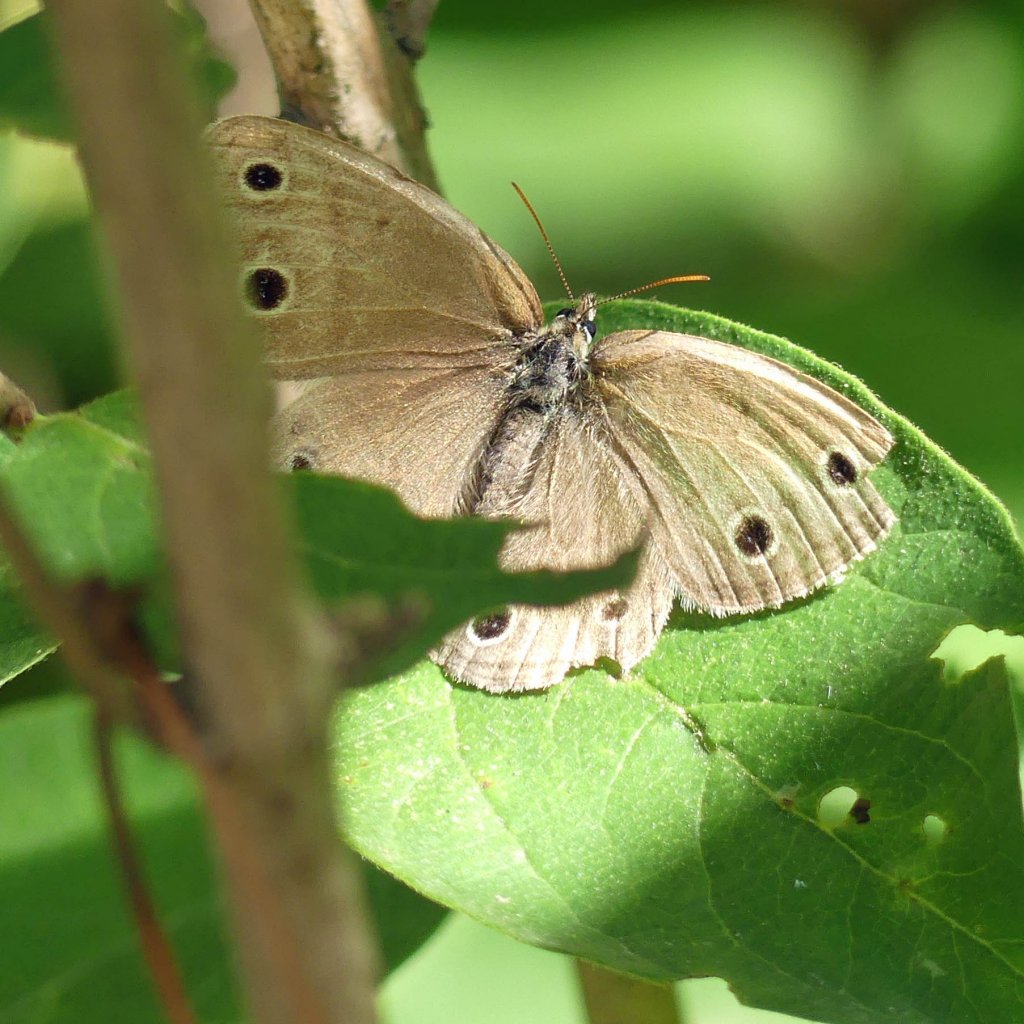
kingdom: Animalia
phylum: Arthropoda
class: Insecta
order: Lepidoptera
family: Nymphalidae
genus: Euptychia
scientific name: Euptychia cymela
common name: Little Wood Satyr
